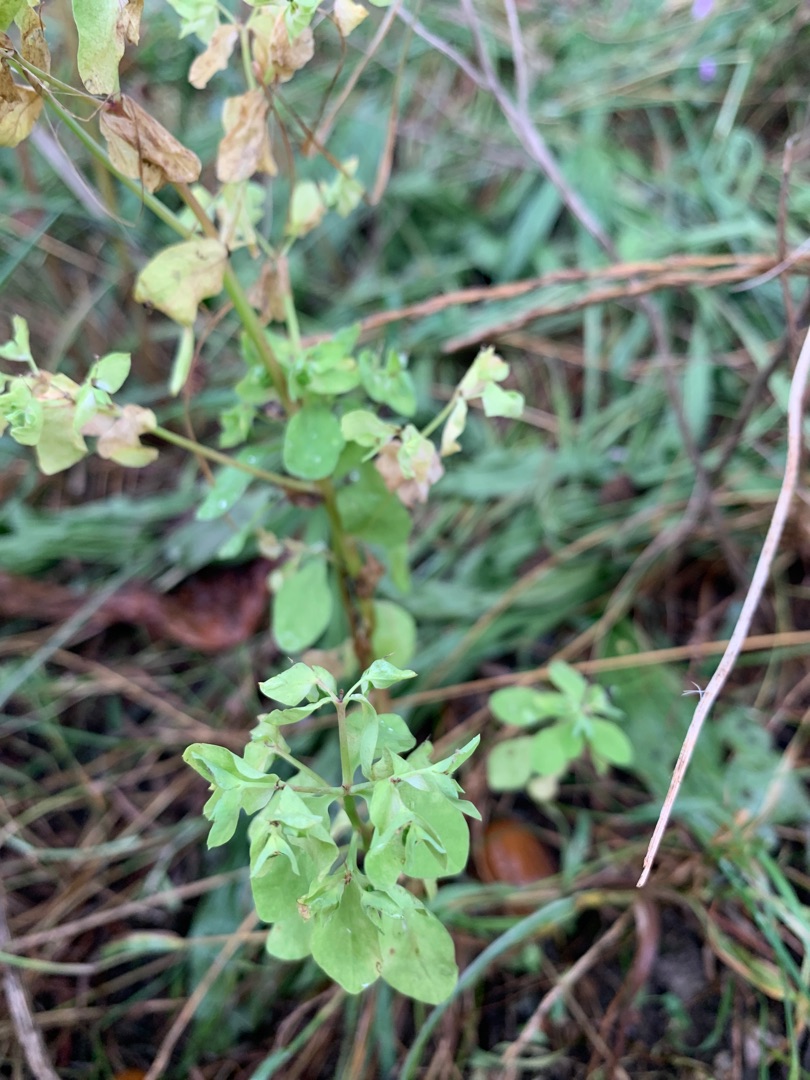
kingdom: Plantae
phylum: Tracheophyta
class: Magnoliopsida
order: Malpighiales
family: Euphorbiaceae
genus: Euphorbia
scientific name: Euphorbia peplus
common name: Gaffel-vortemælk
